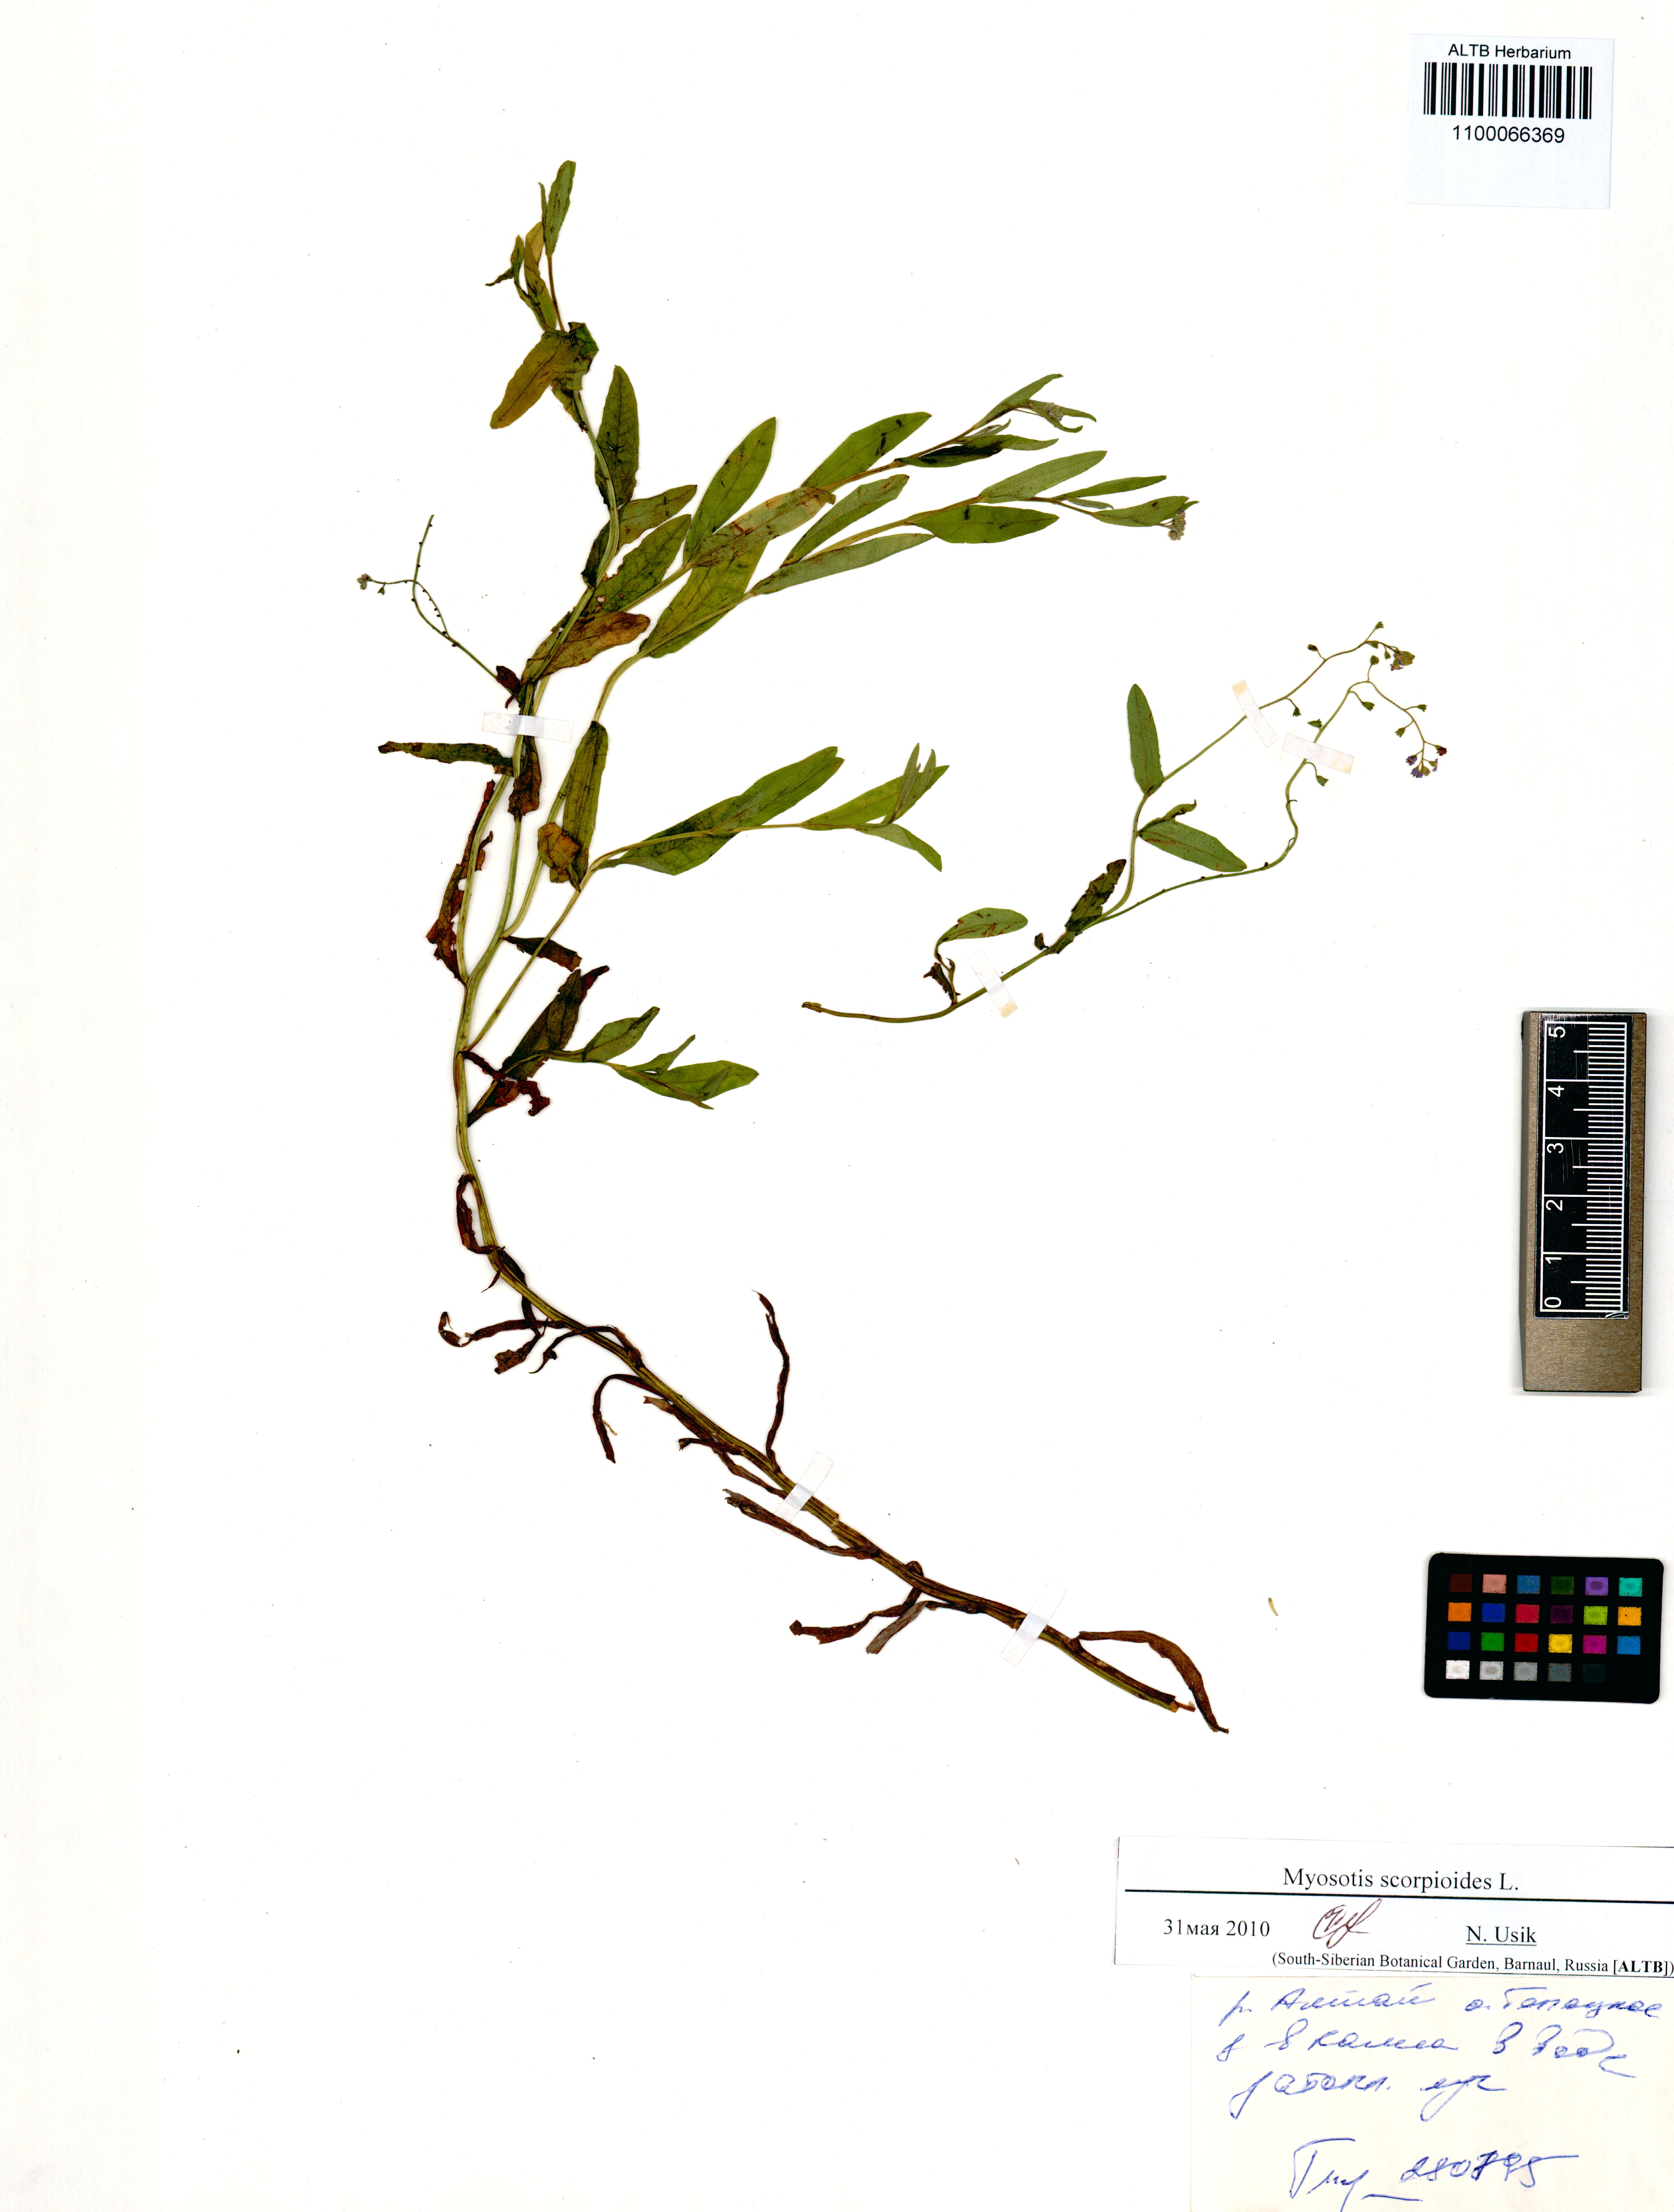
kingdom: Plantae
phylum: Tracheophyta
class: Magnoliopsida
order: Boraginales
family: Boraginaceae
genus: Myosotis
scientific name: Myosotis scorpioides
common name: Water forget-me-not
